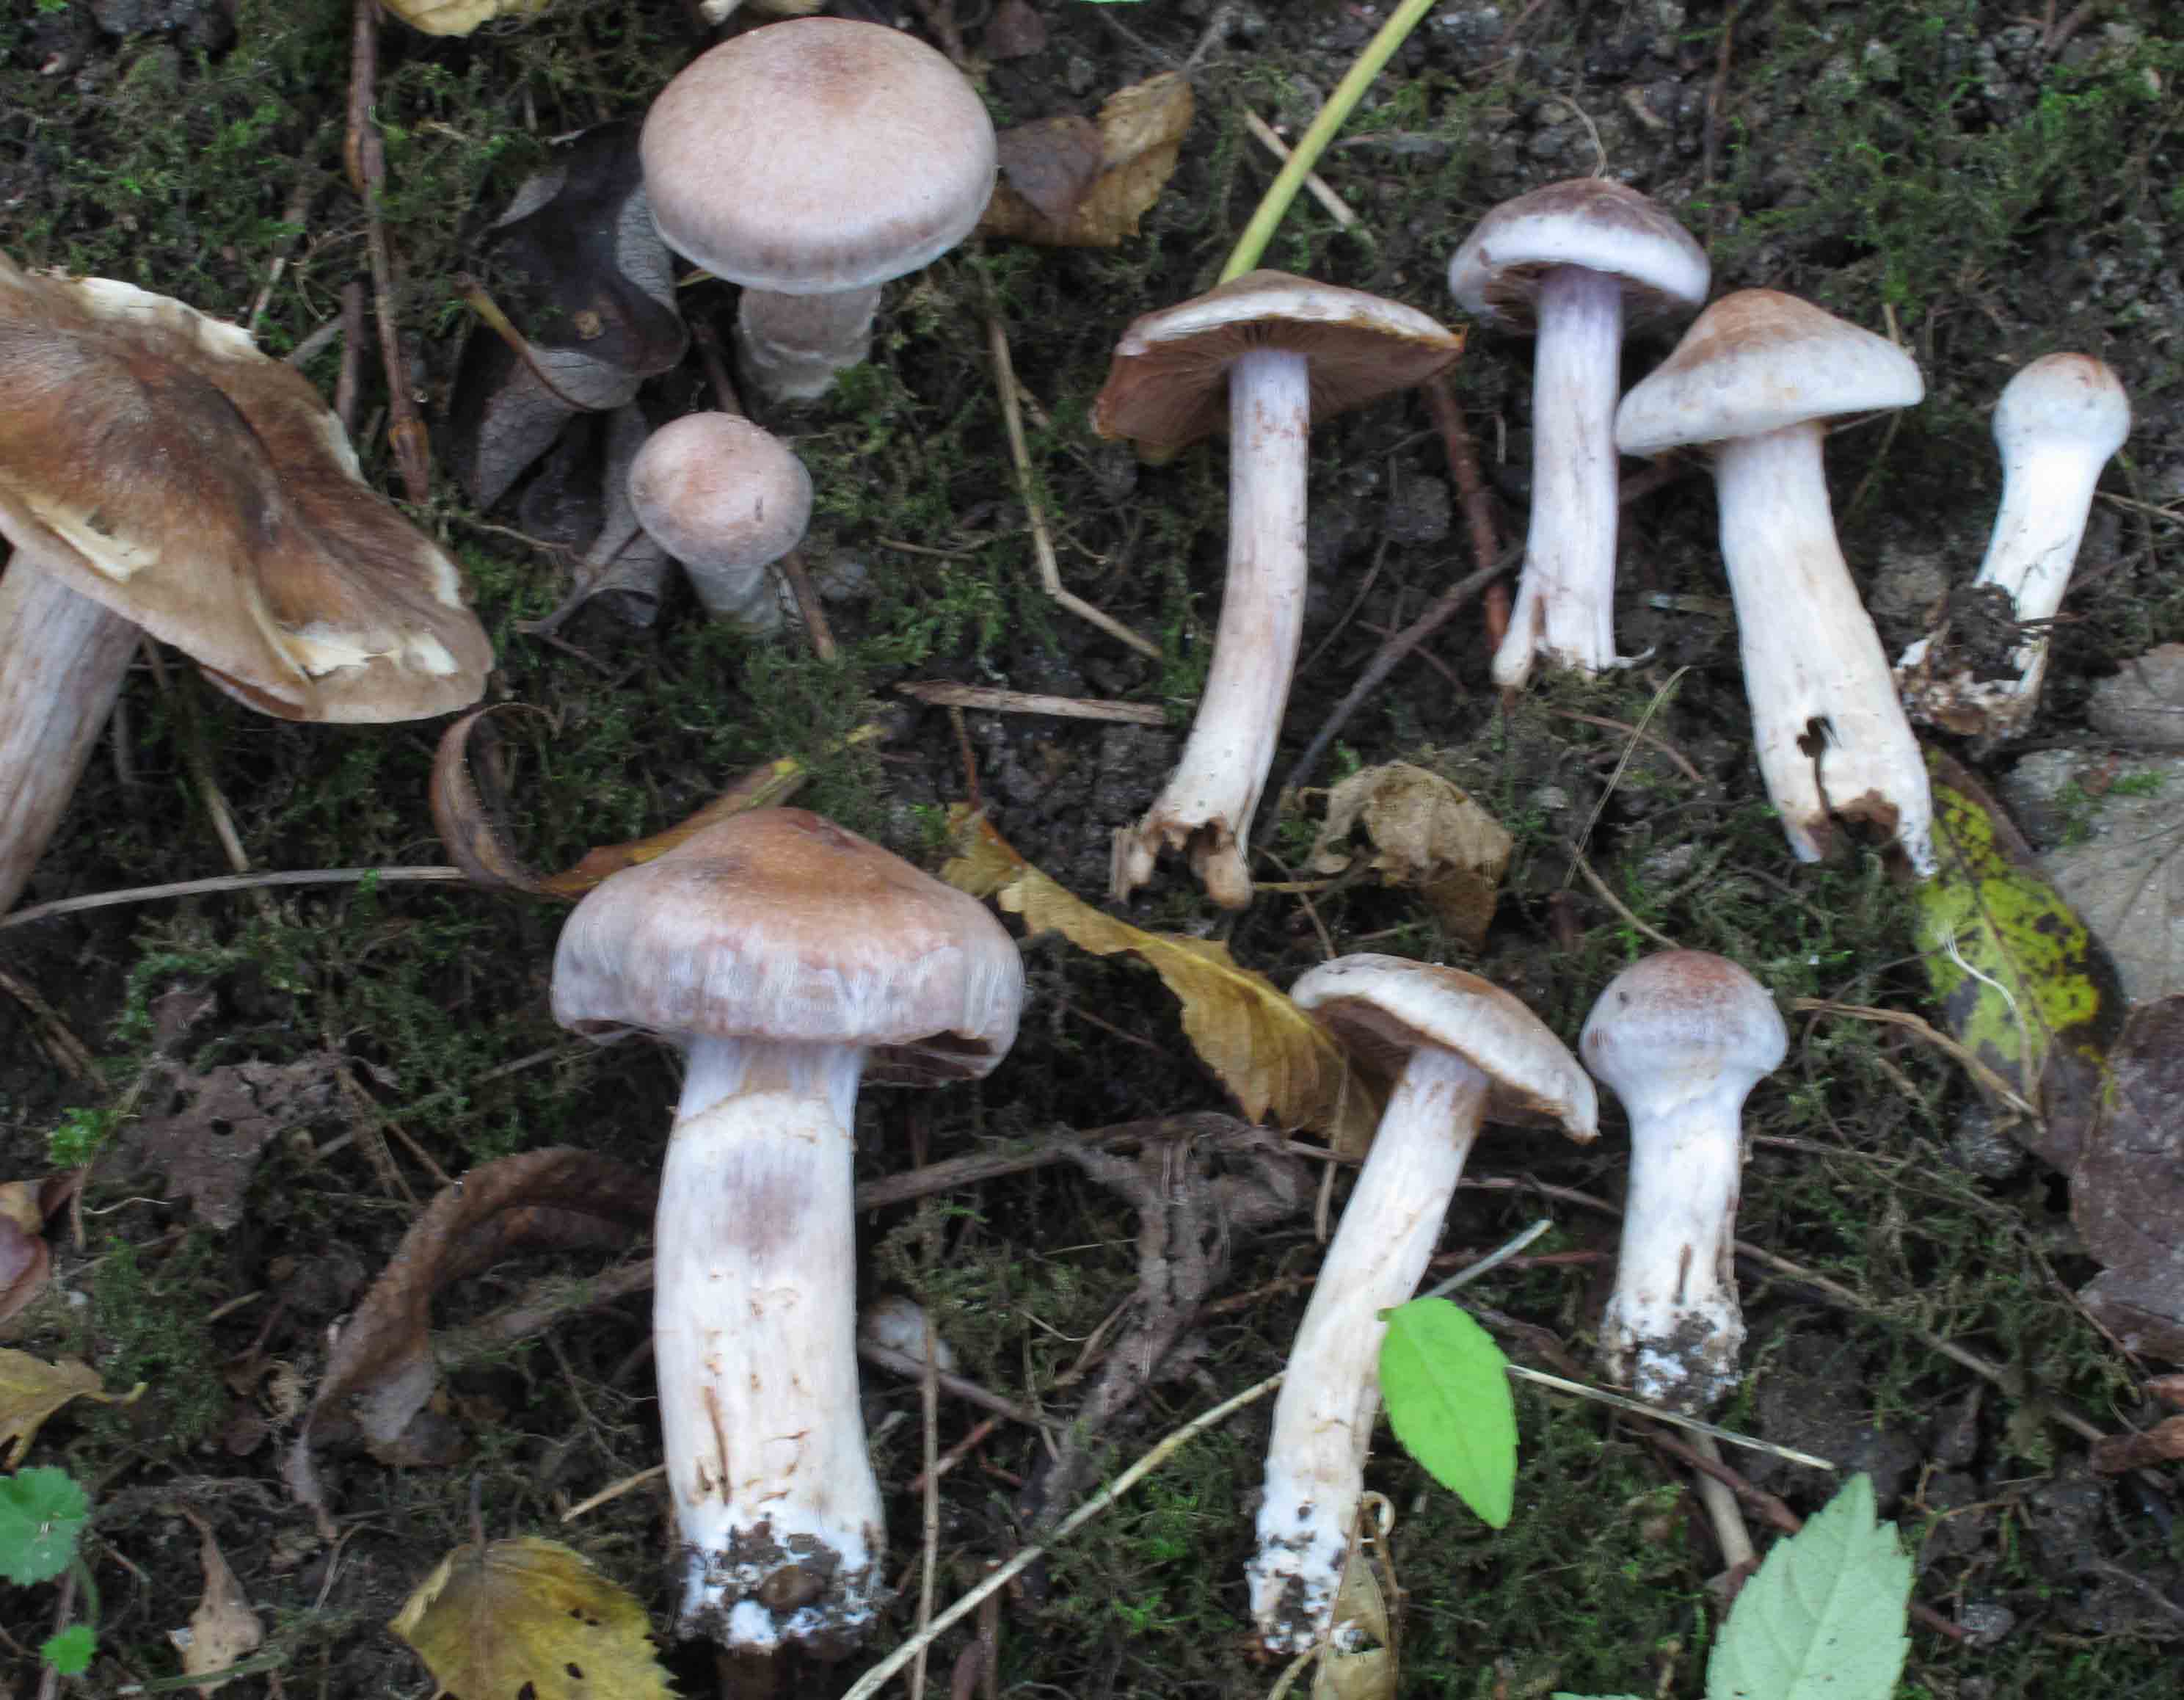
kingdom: Fungi
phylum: Basidiomycota
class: Agaricomycetes
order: Agaricales
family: Cortinariaceae
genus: Cortinarius
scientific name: Cortinarius saturninus
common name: brunviolet slørhat
